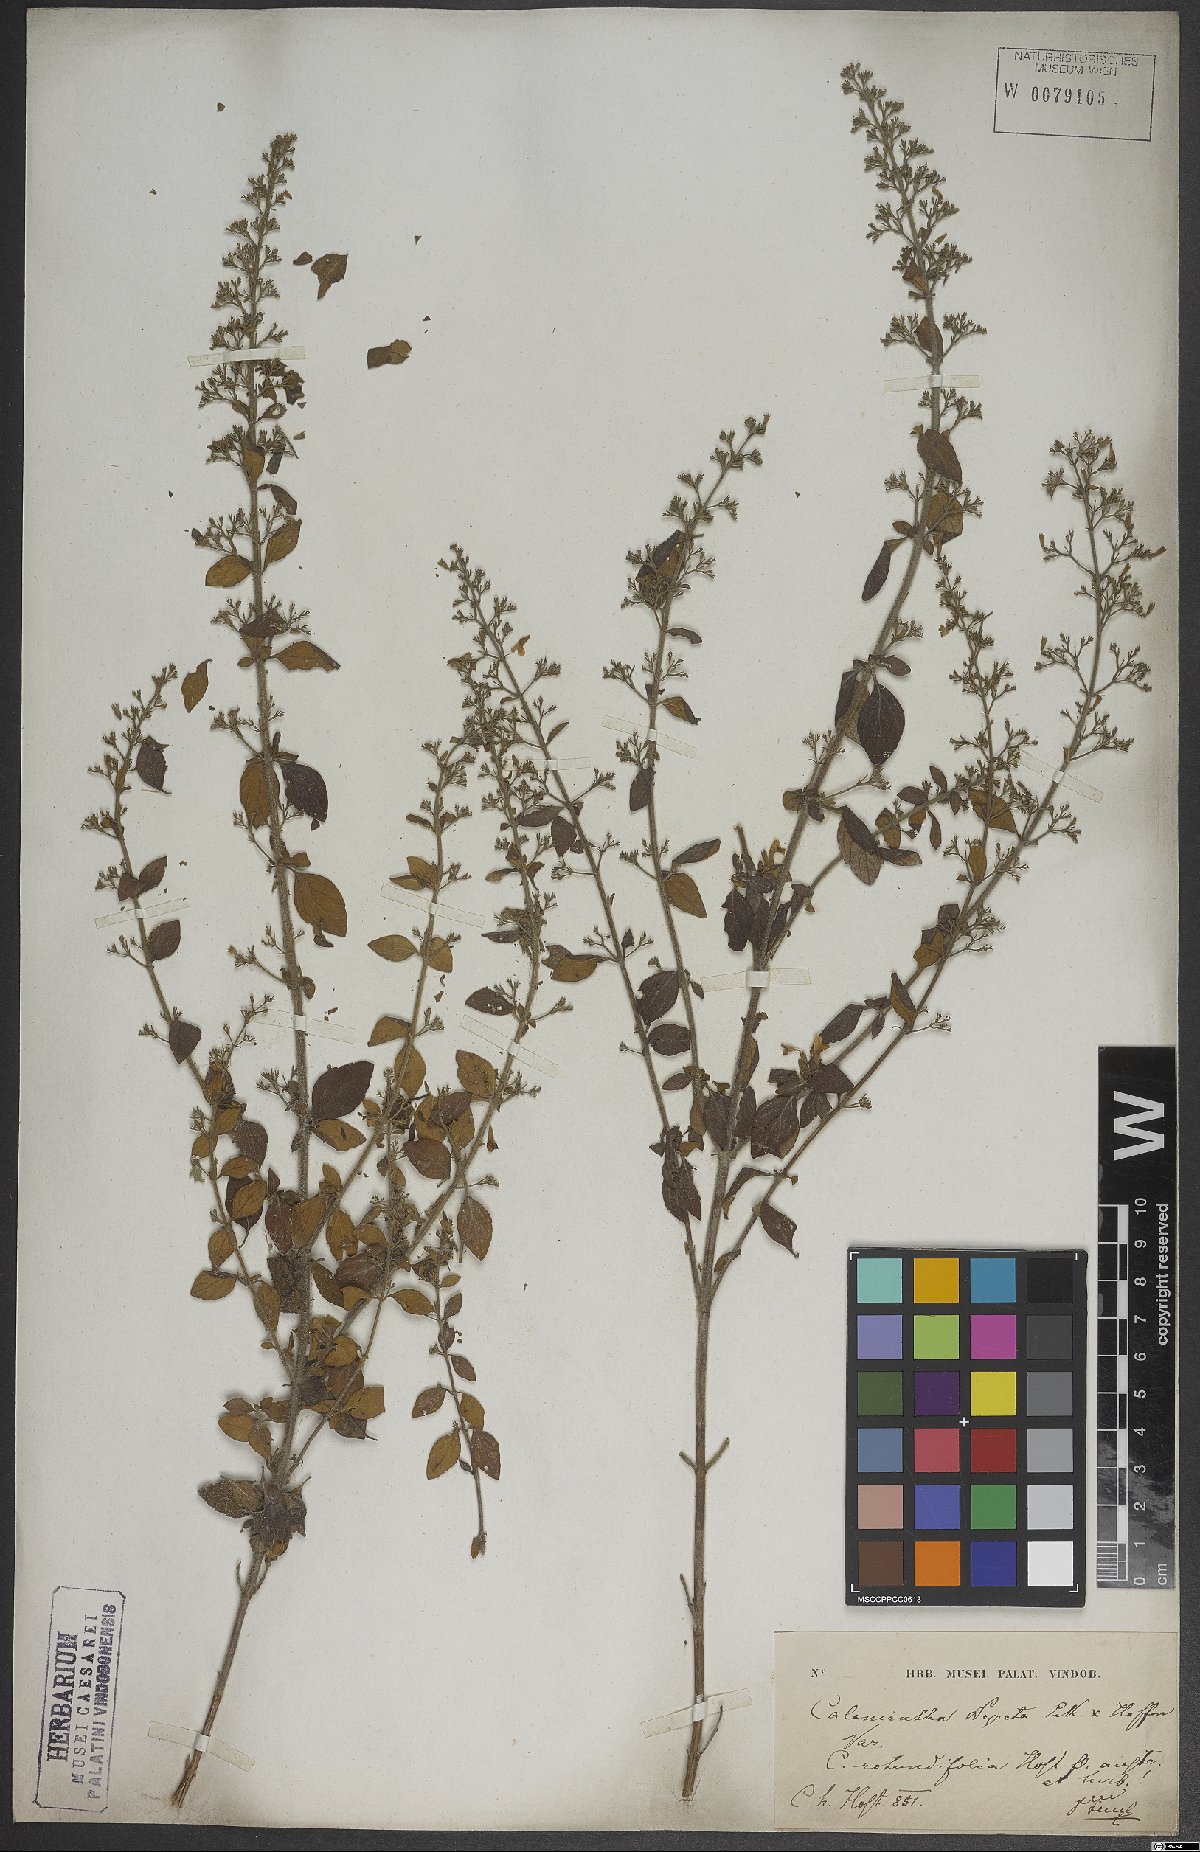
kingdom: Plantae
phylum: Tracheophyta
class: Magnoliopsida
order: Lamiales
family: Lamiaceae
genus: Clinopodium
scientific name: Clinopodium nepeta
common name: Lesser calamint
